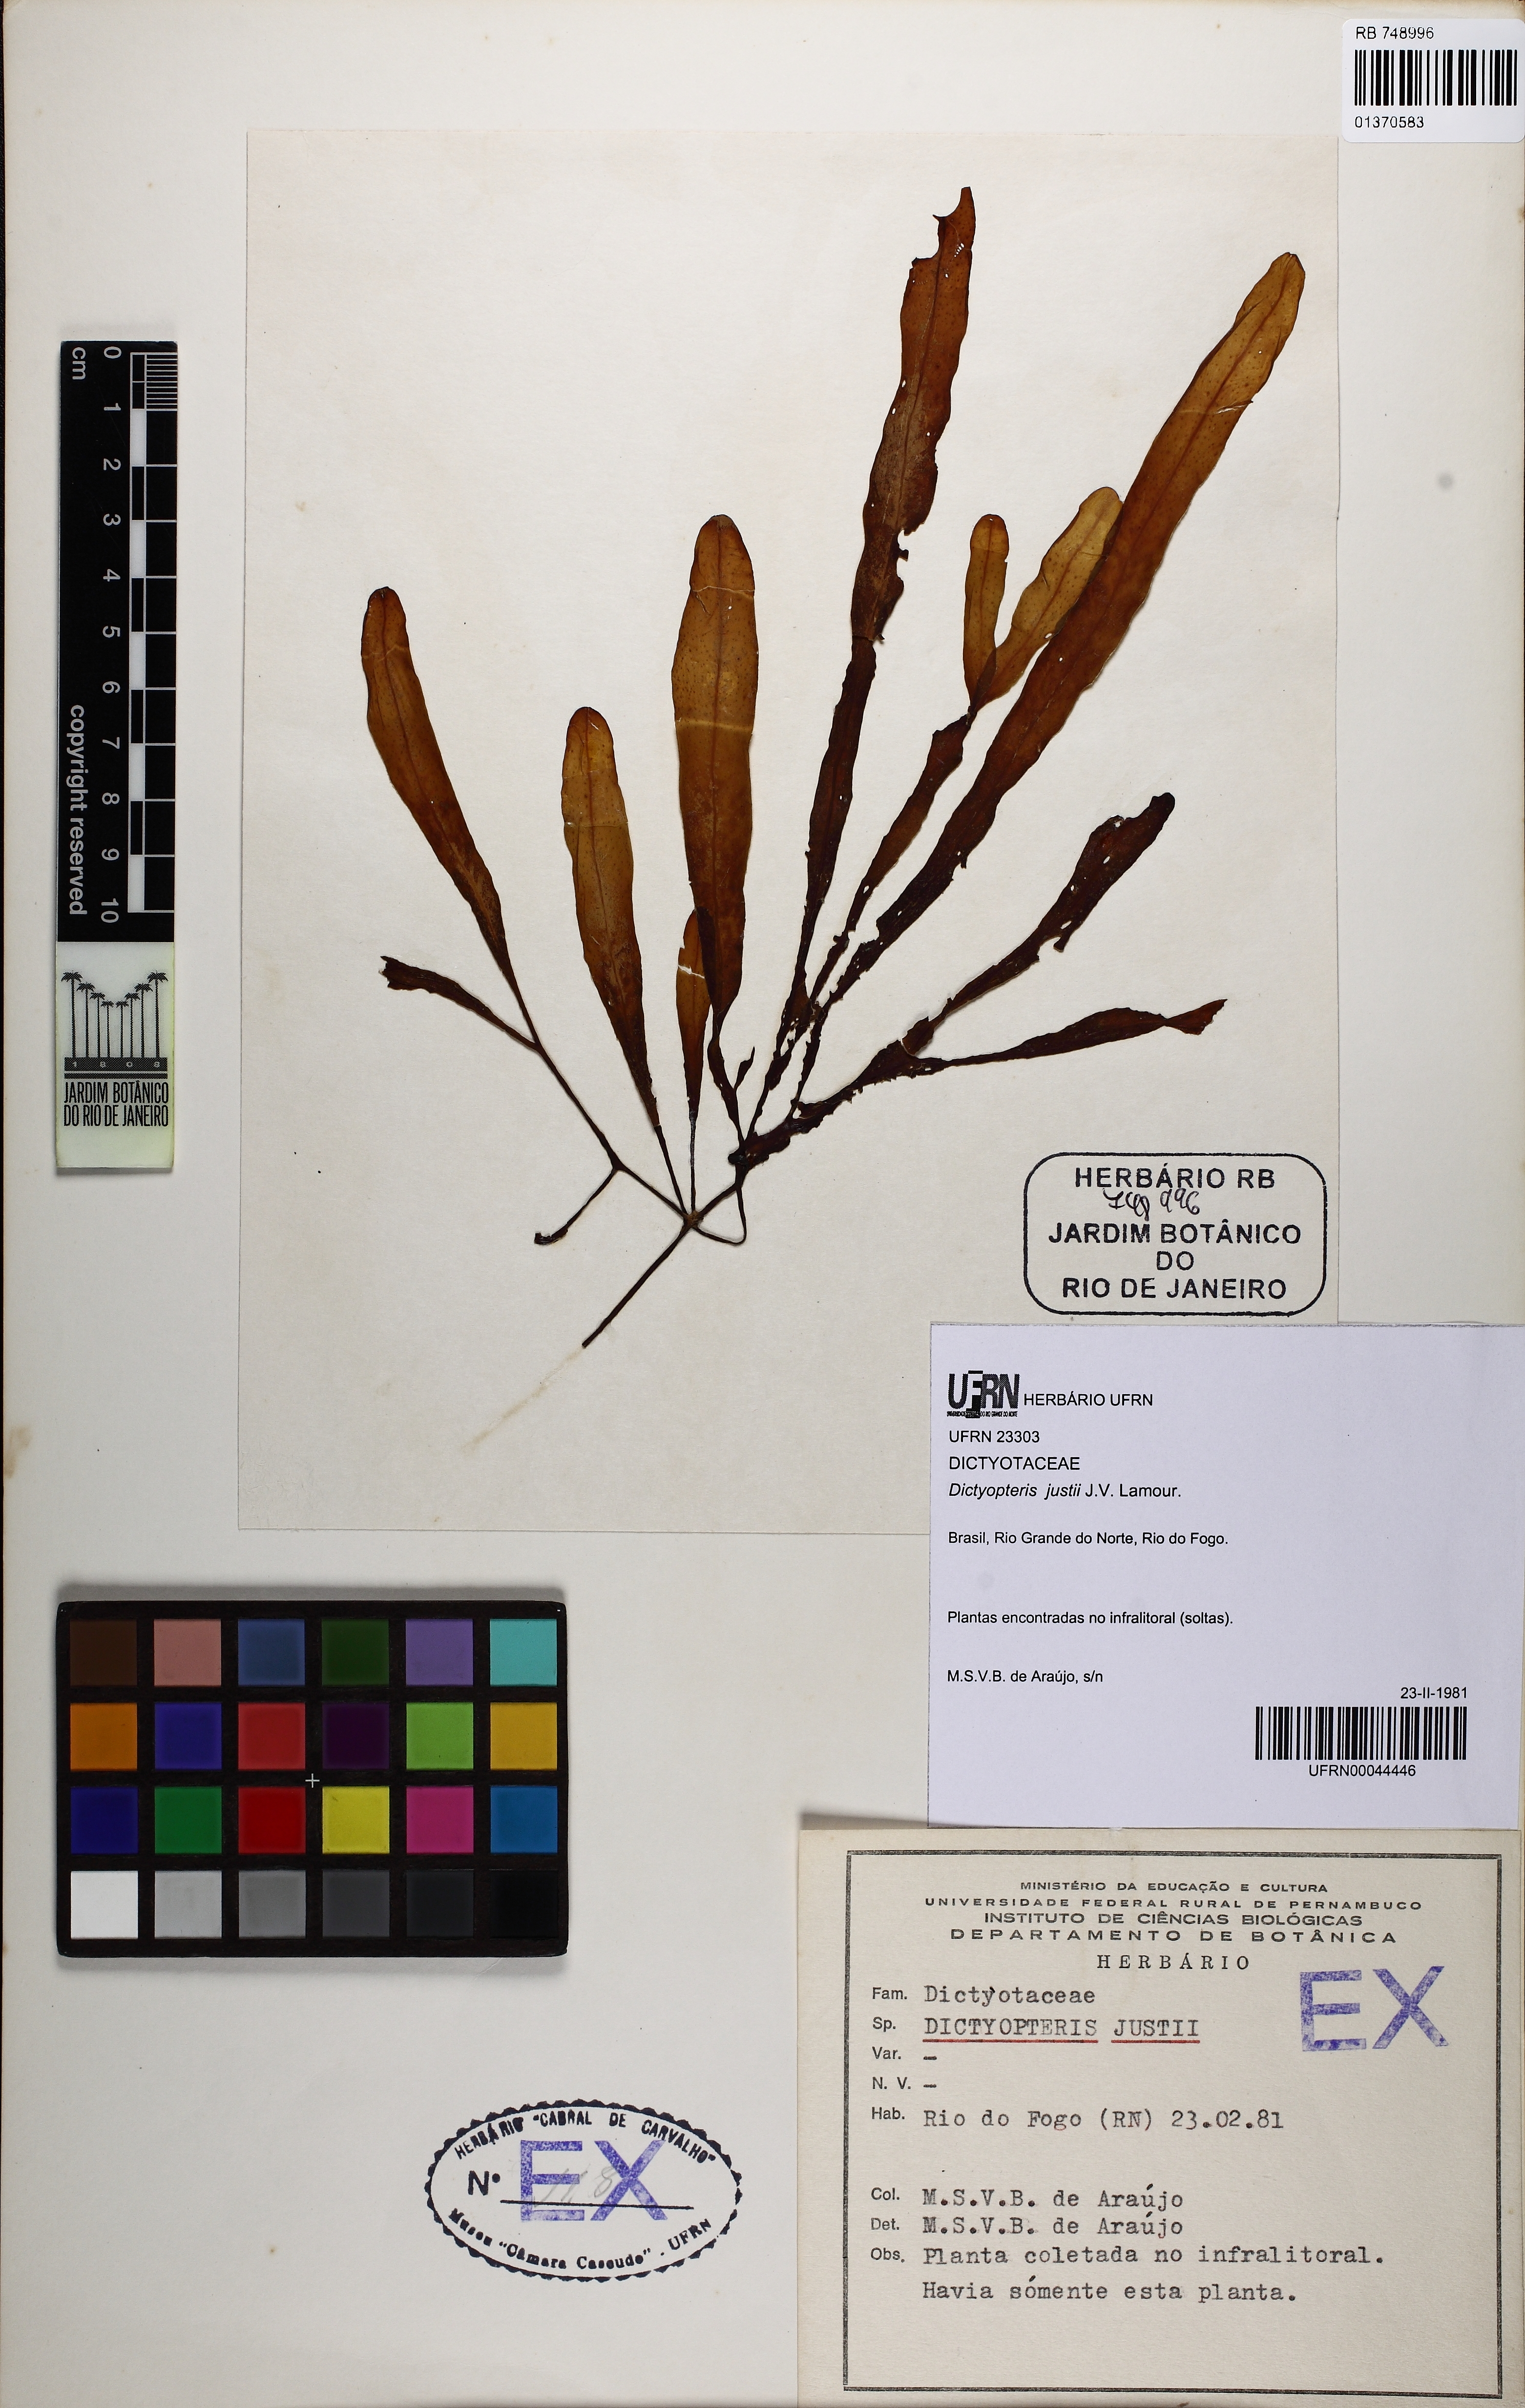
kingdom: Chromista
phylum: Ochrophyta
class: Phaeophyceae
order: Dictyotales
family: Dictyotaceae
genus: Dictyopteris
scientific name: Dictyopteris justii
